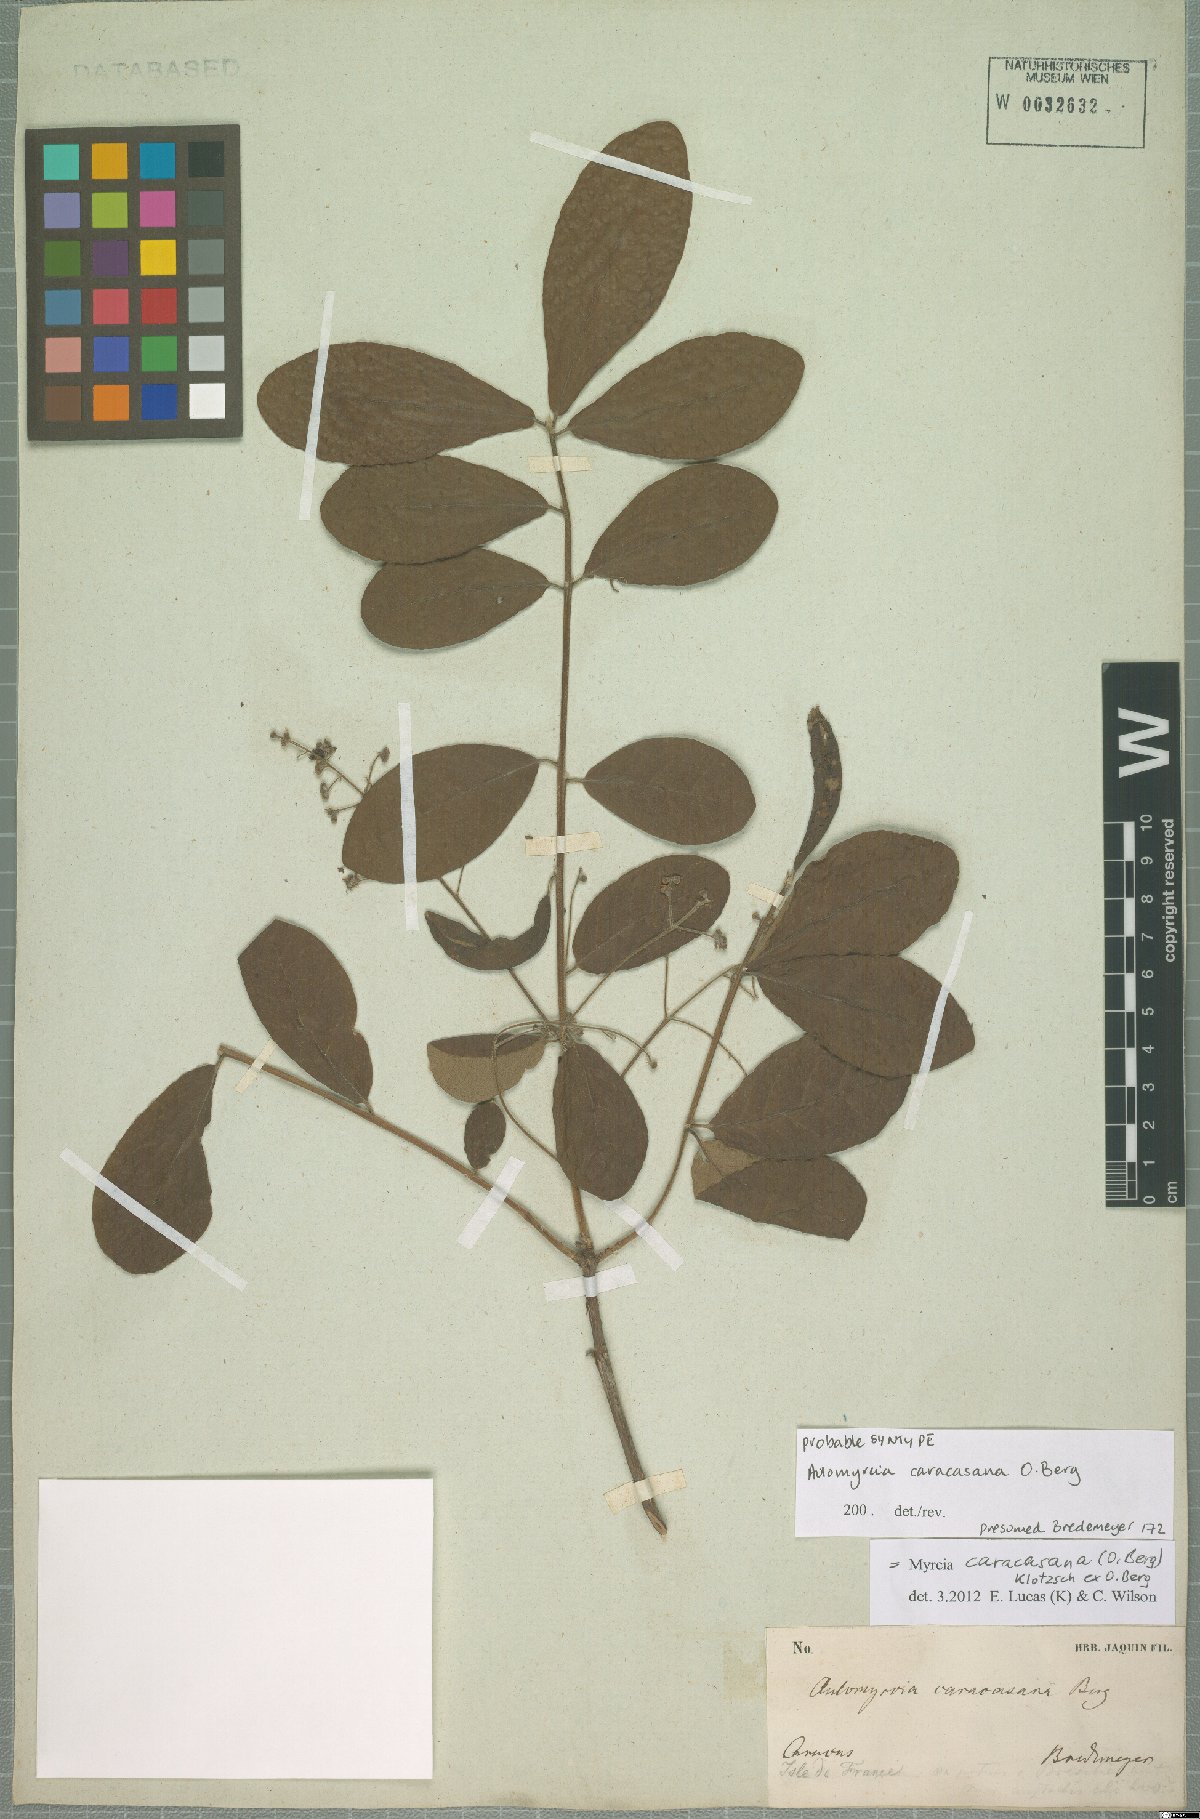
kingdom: Plantae
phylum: Tracheophyta
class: Magnoliopsida
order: Myrtales
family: Myrtaceae
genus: Myrcia
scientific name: Myrcia caracasana
